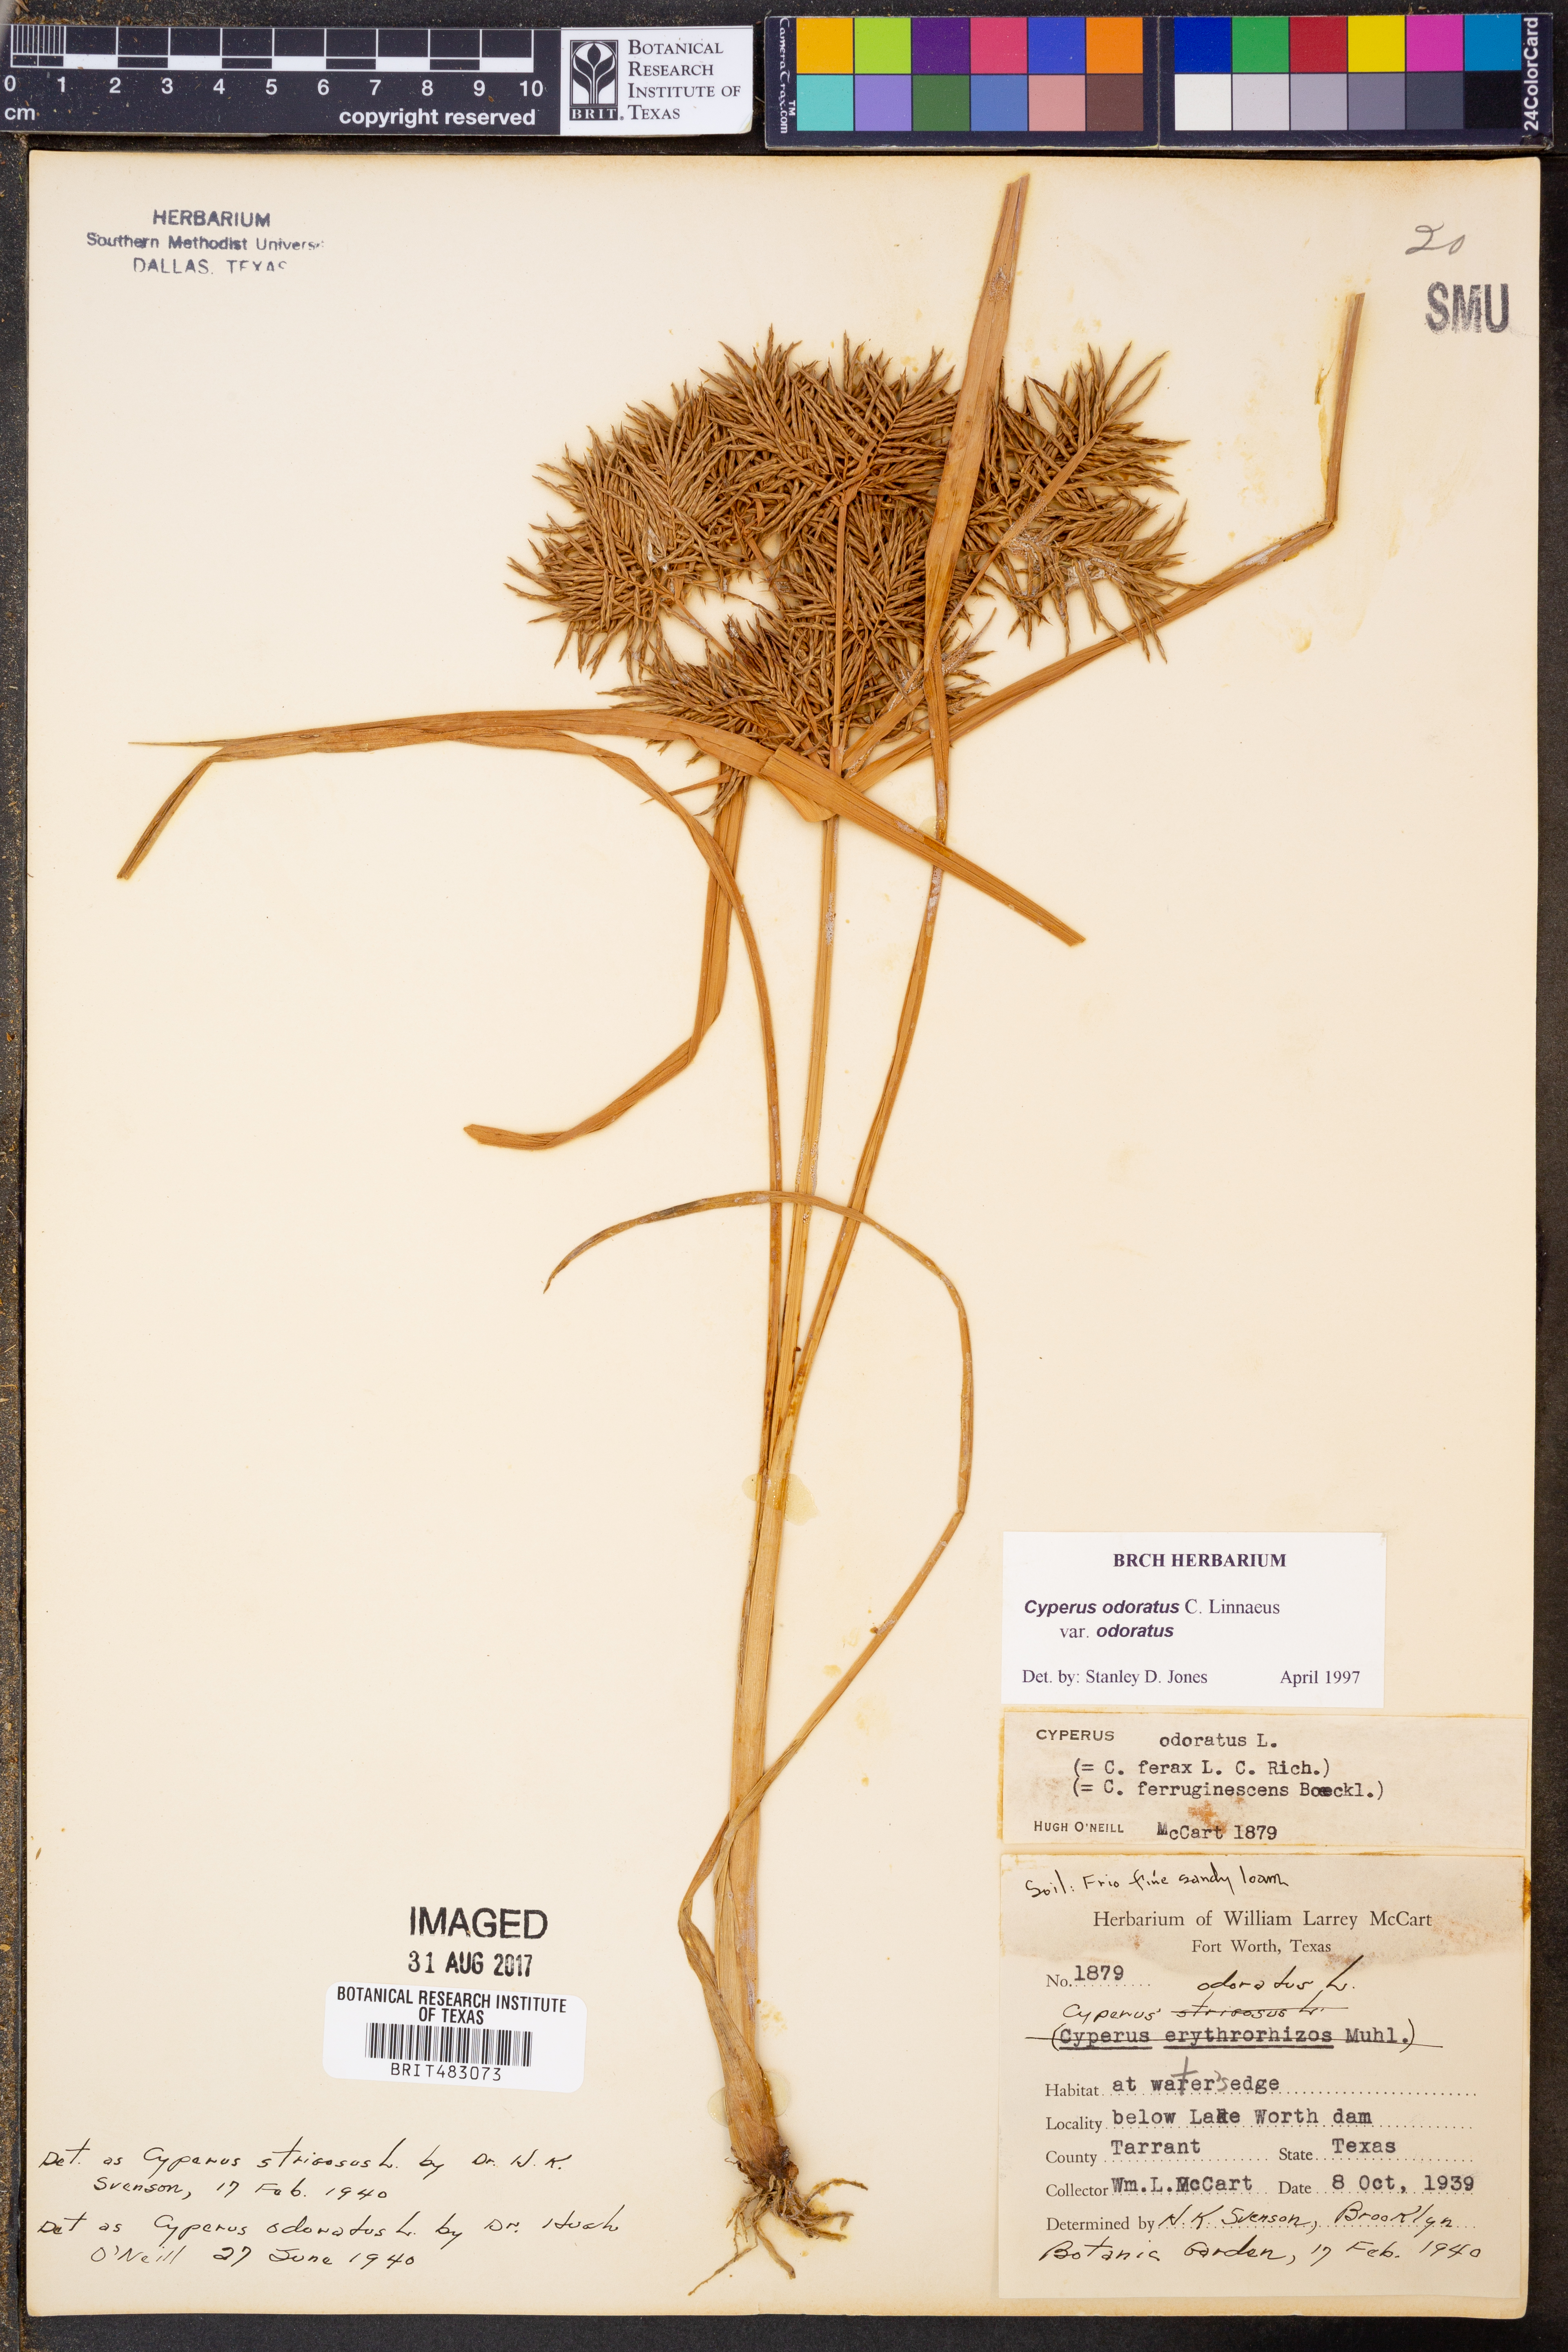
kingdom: Plantae
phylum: Tracheophyta
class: Liliopsida
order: Poales
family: Cyperaceae
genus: Cyperus
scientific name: Cyperus odoratus
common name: Fragrant flatsedge
